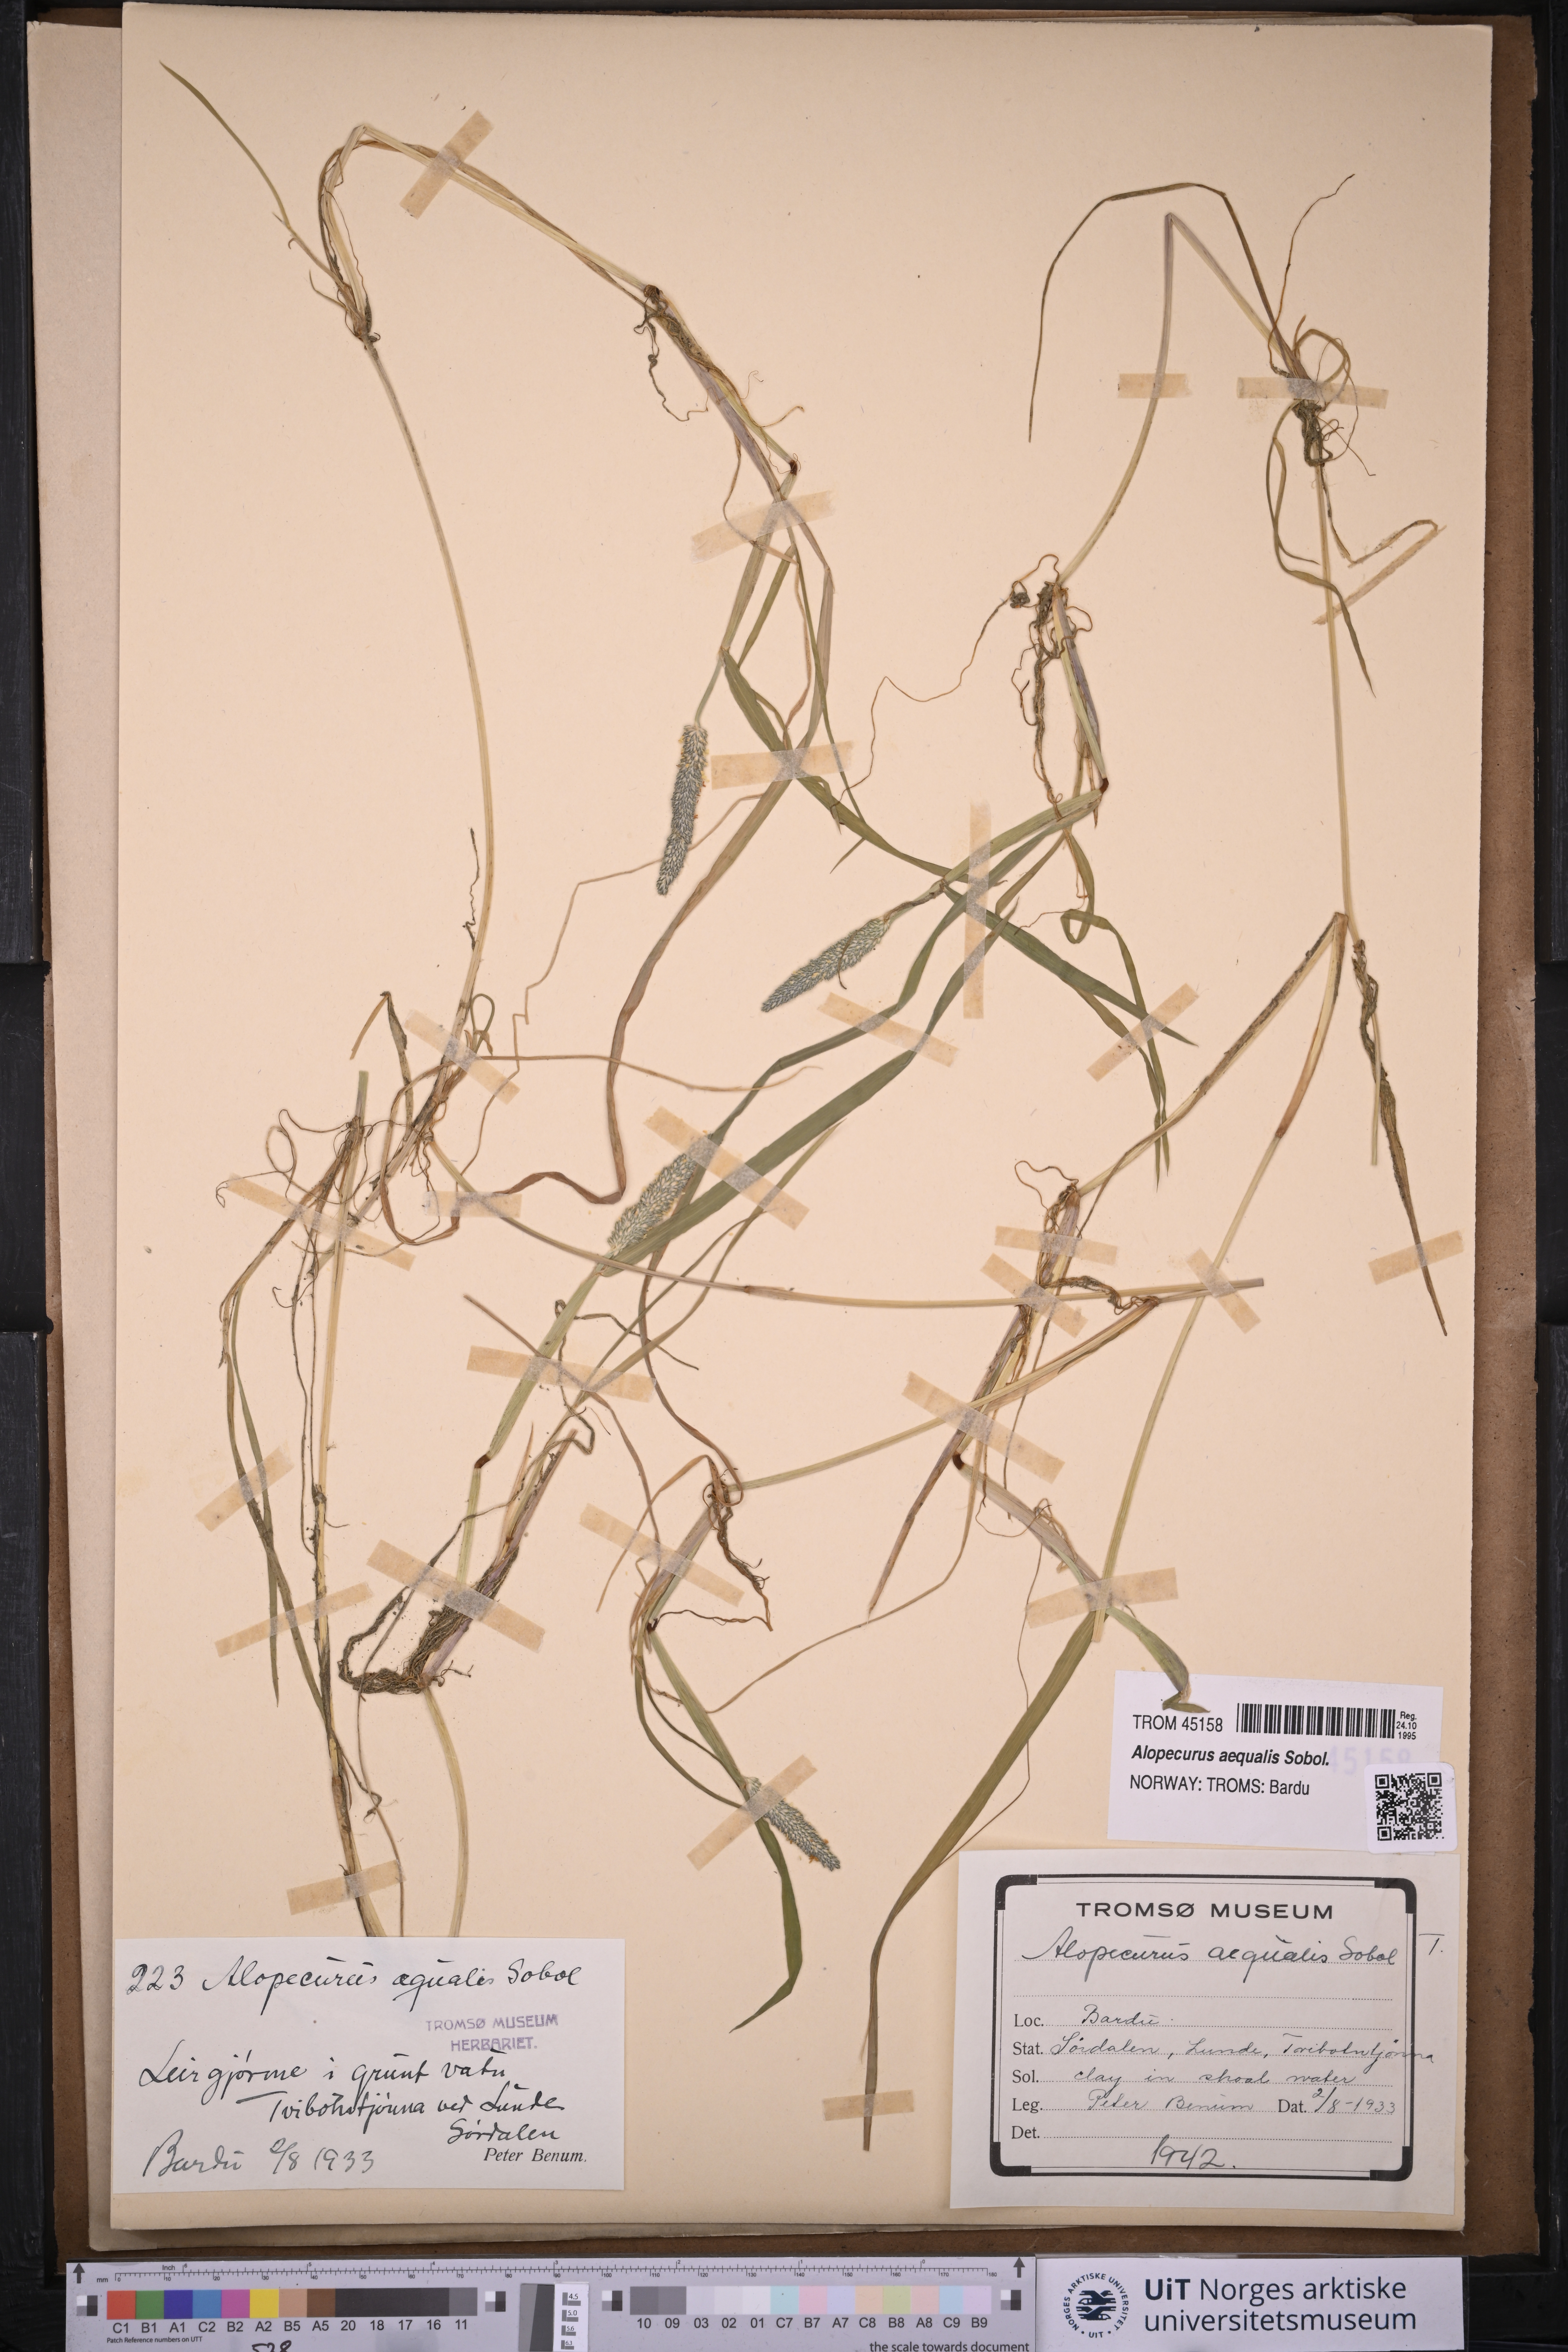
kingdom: Plantae
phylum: Tracheophyta
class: Liliopsida
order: Poales
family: Poaceae
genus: Alopecurus
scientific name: Alopecurus aequalis
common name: Orange foxtail
